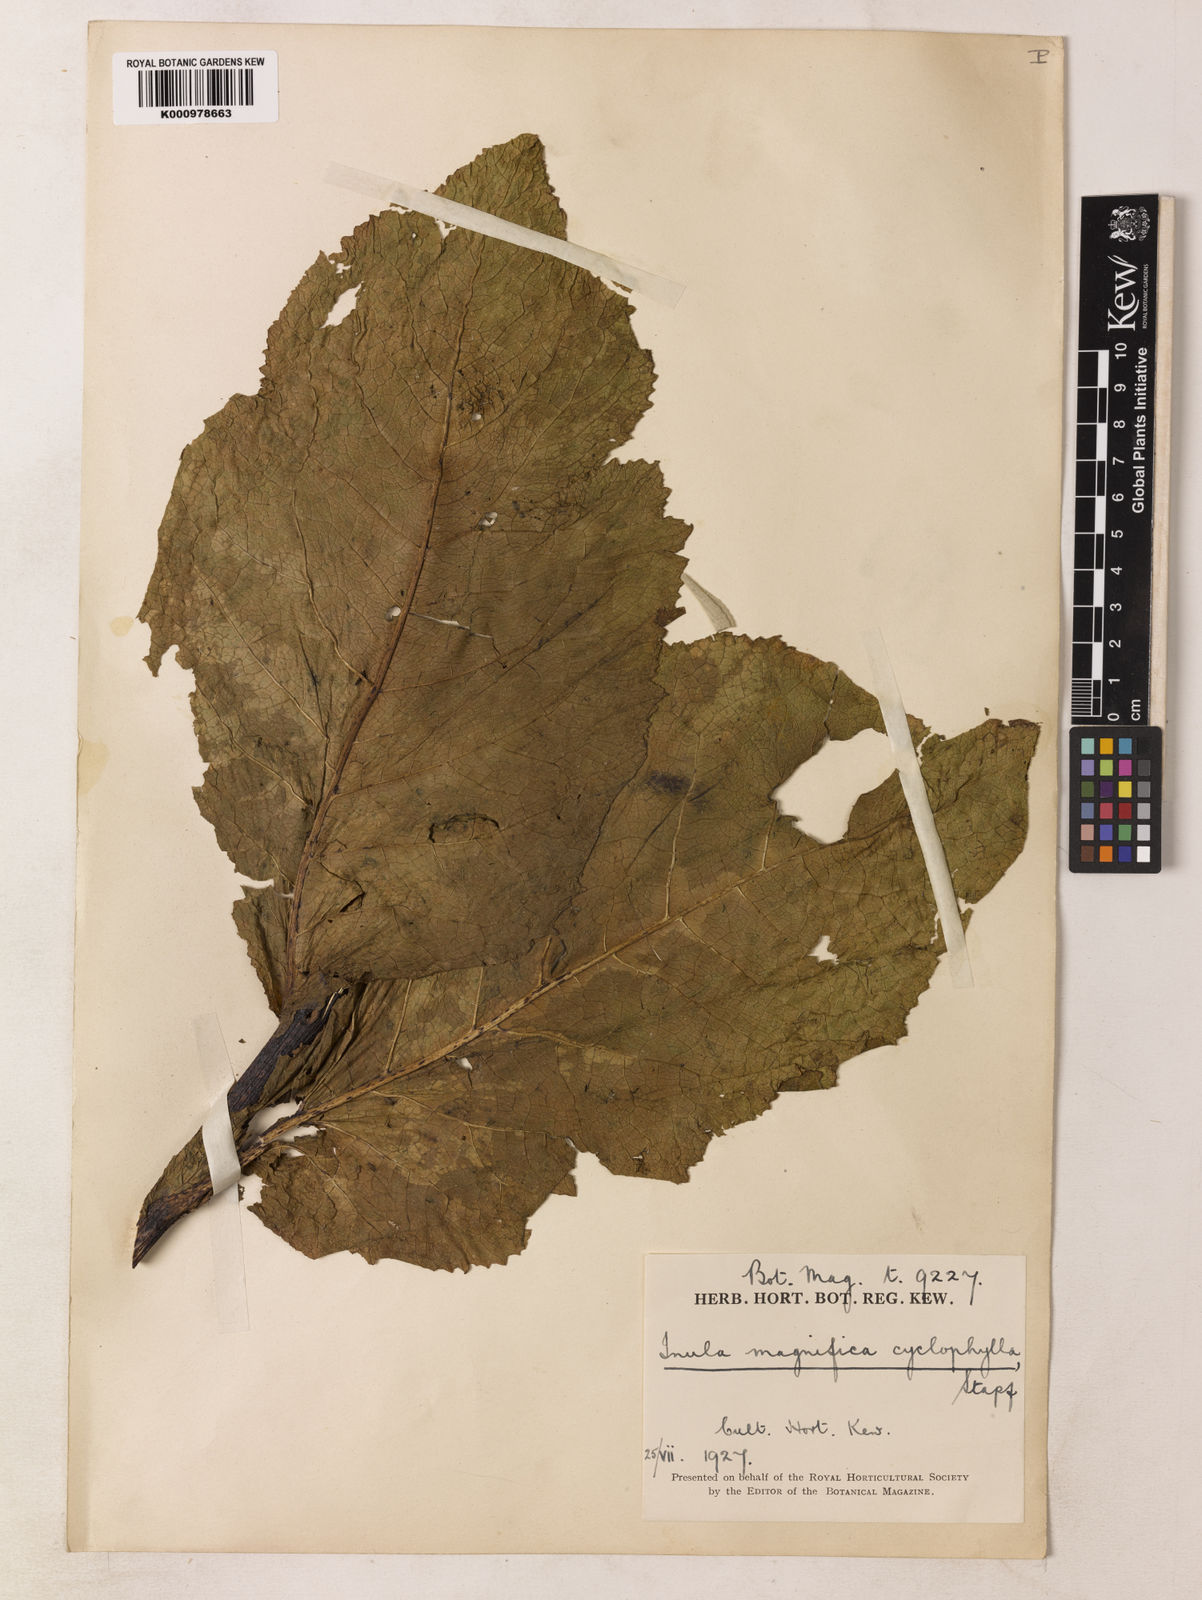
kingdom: Plantae
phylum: Tracheophyta
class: Magnoliopsida
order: Asterales
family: Asteraceae
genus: Inula
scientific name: Inula magnifica
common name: Giant fleabane
